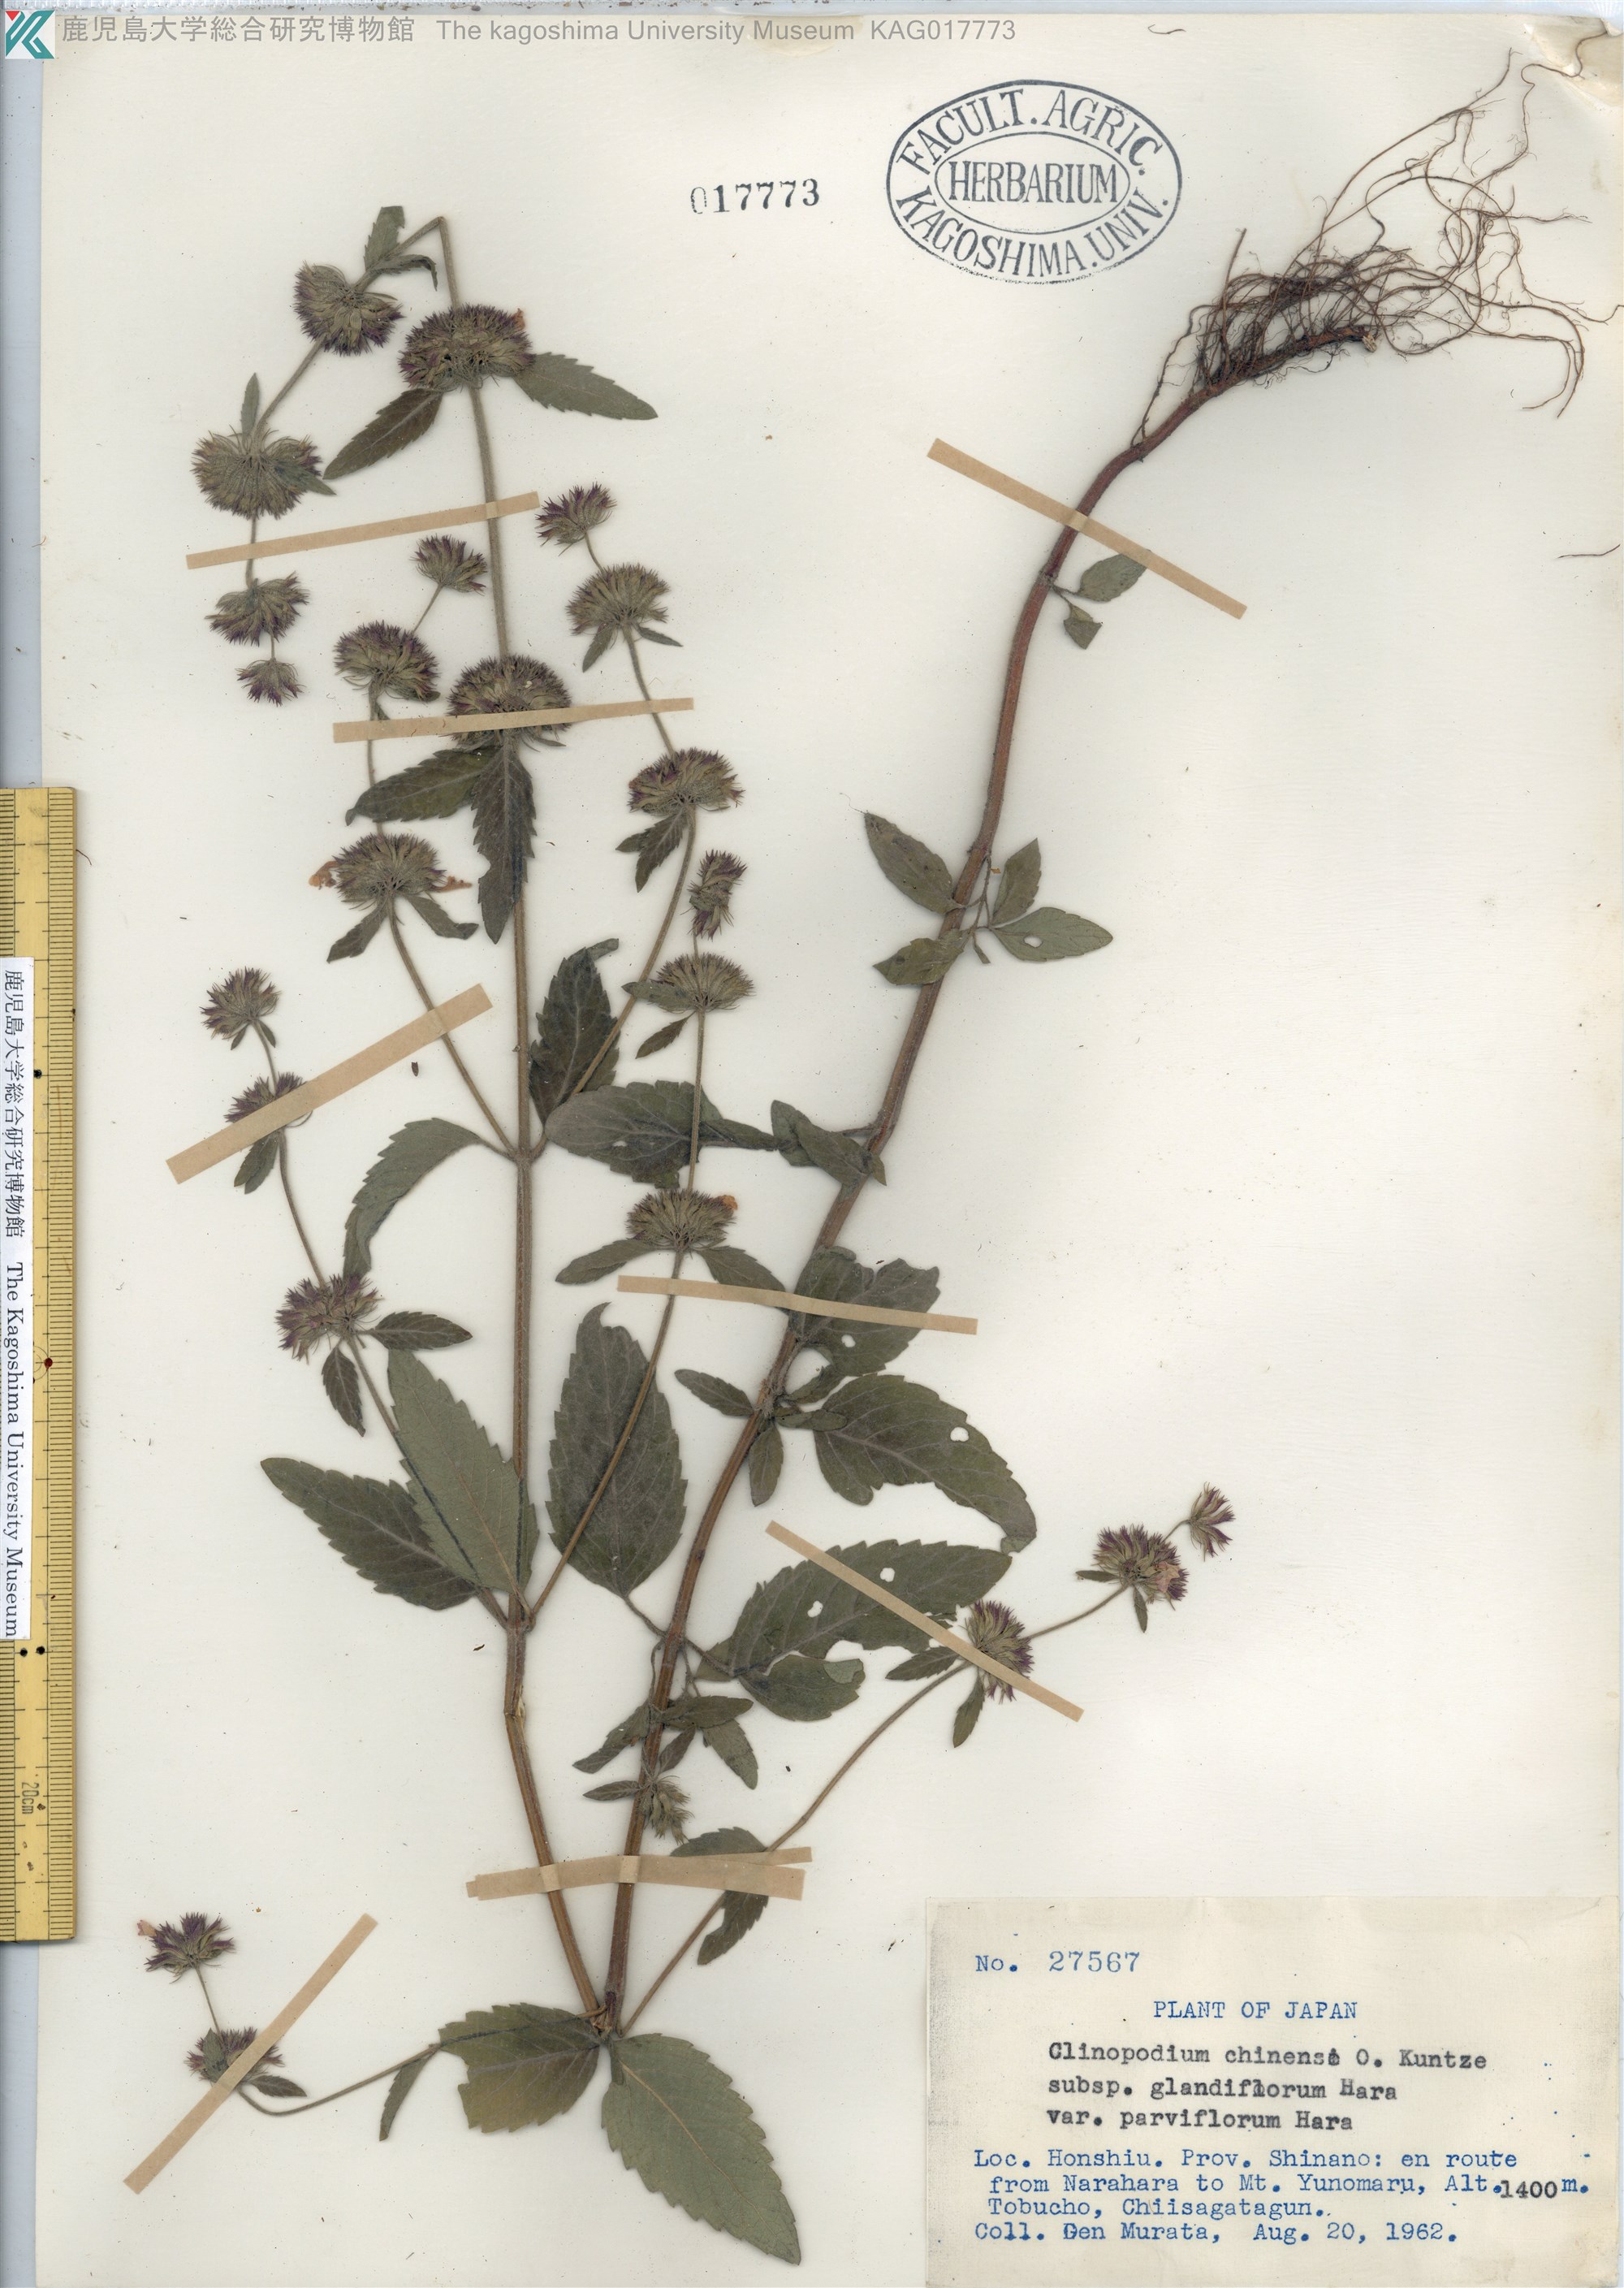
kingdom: Plantae
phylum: Tracheophyta
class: Magnoliopsida
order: Lamiales
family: Lamiaceae
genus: Clinopodium
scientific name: Clinopodium chinense
